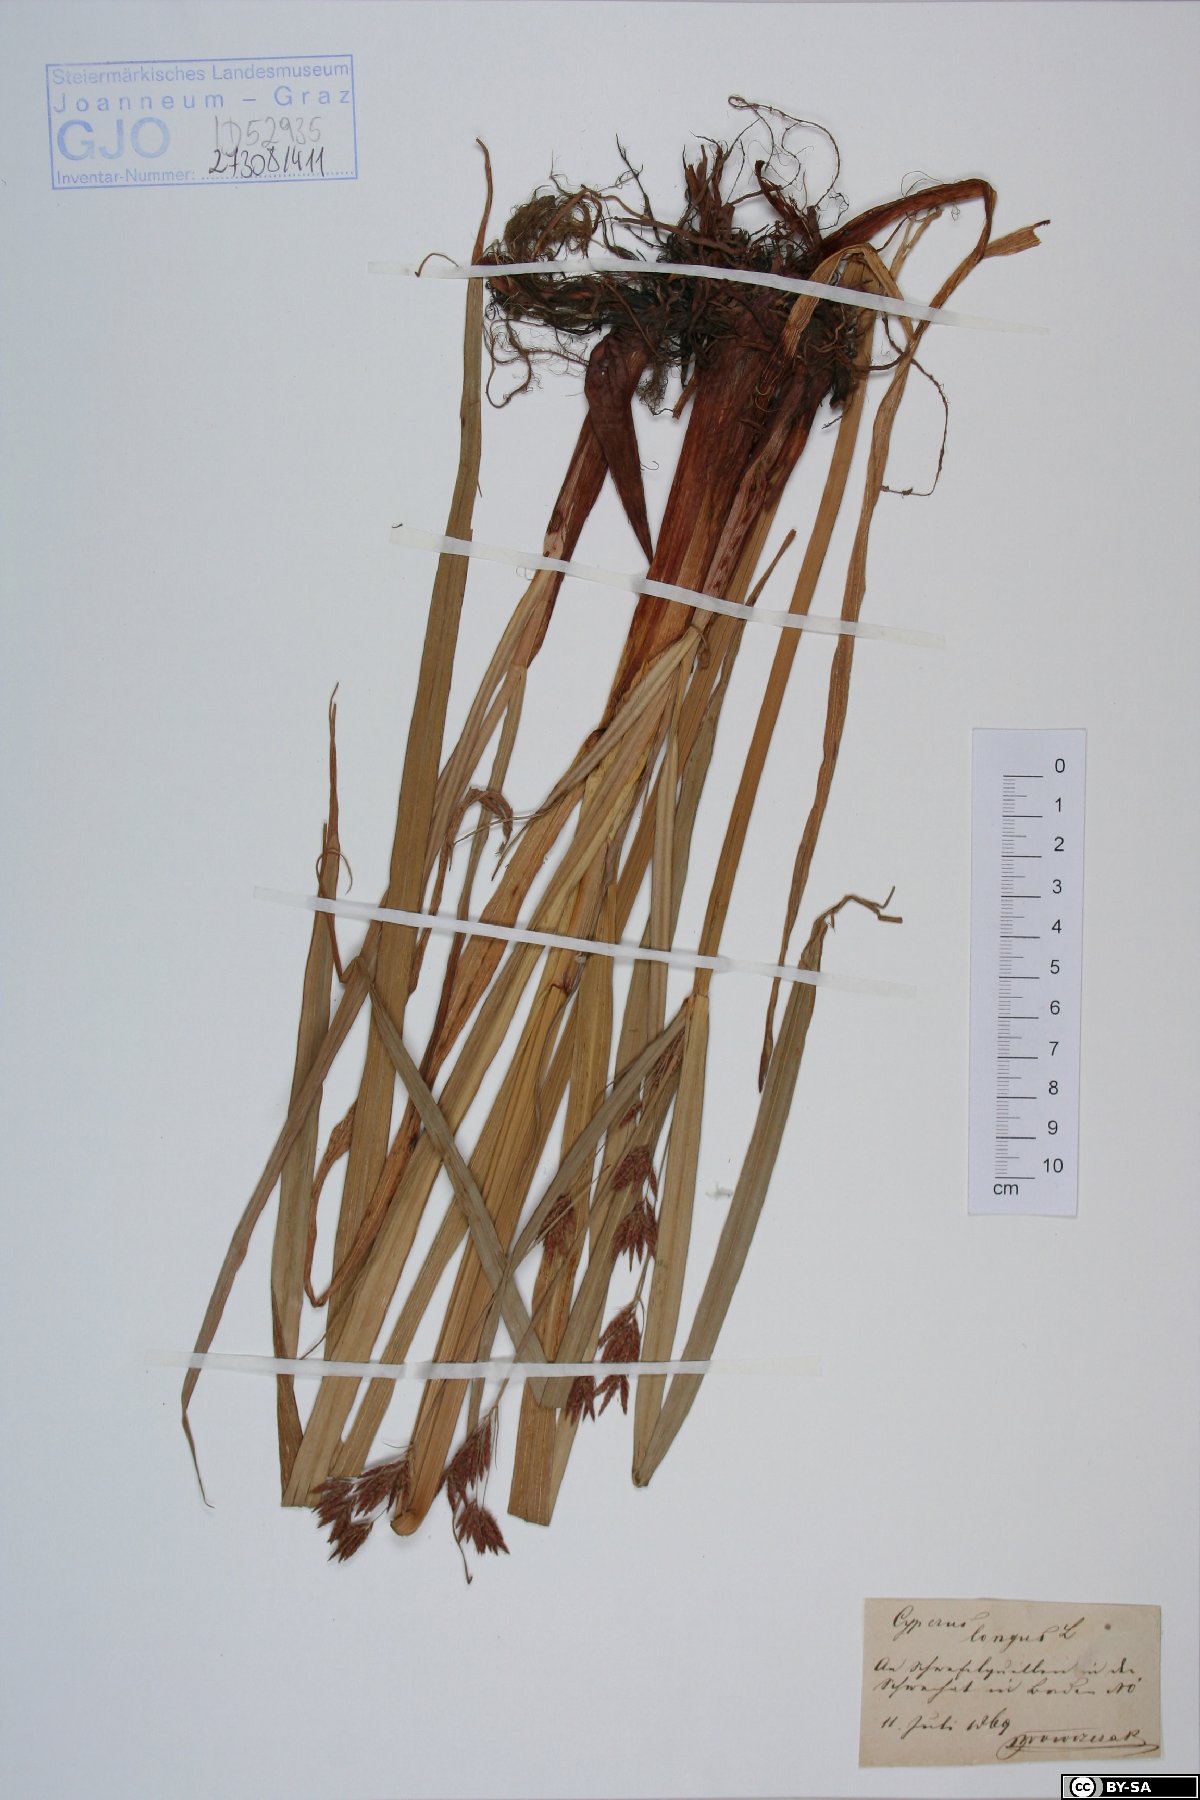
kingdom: Plantae
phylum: Tracheophyta
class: Magnoliopsida
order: Caryophyllales
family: Tamaricaceae
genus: Myricaria
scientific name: Myricaria germanica
